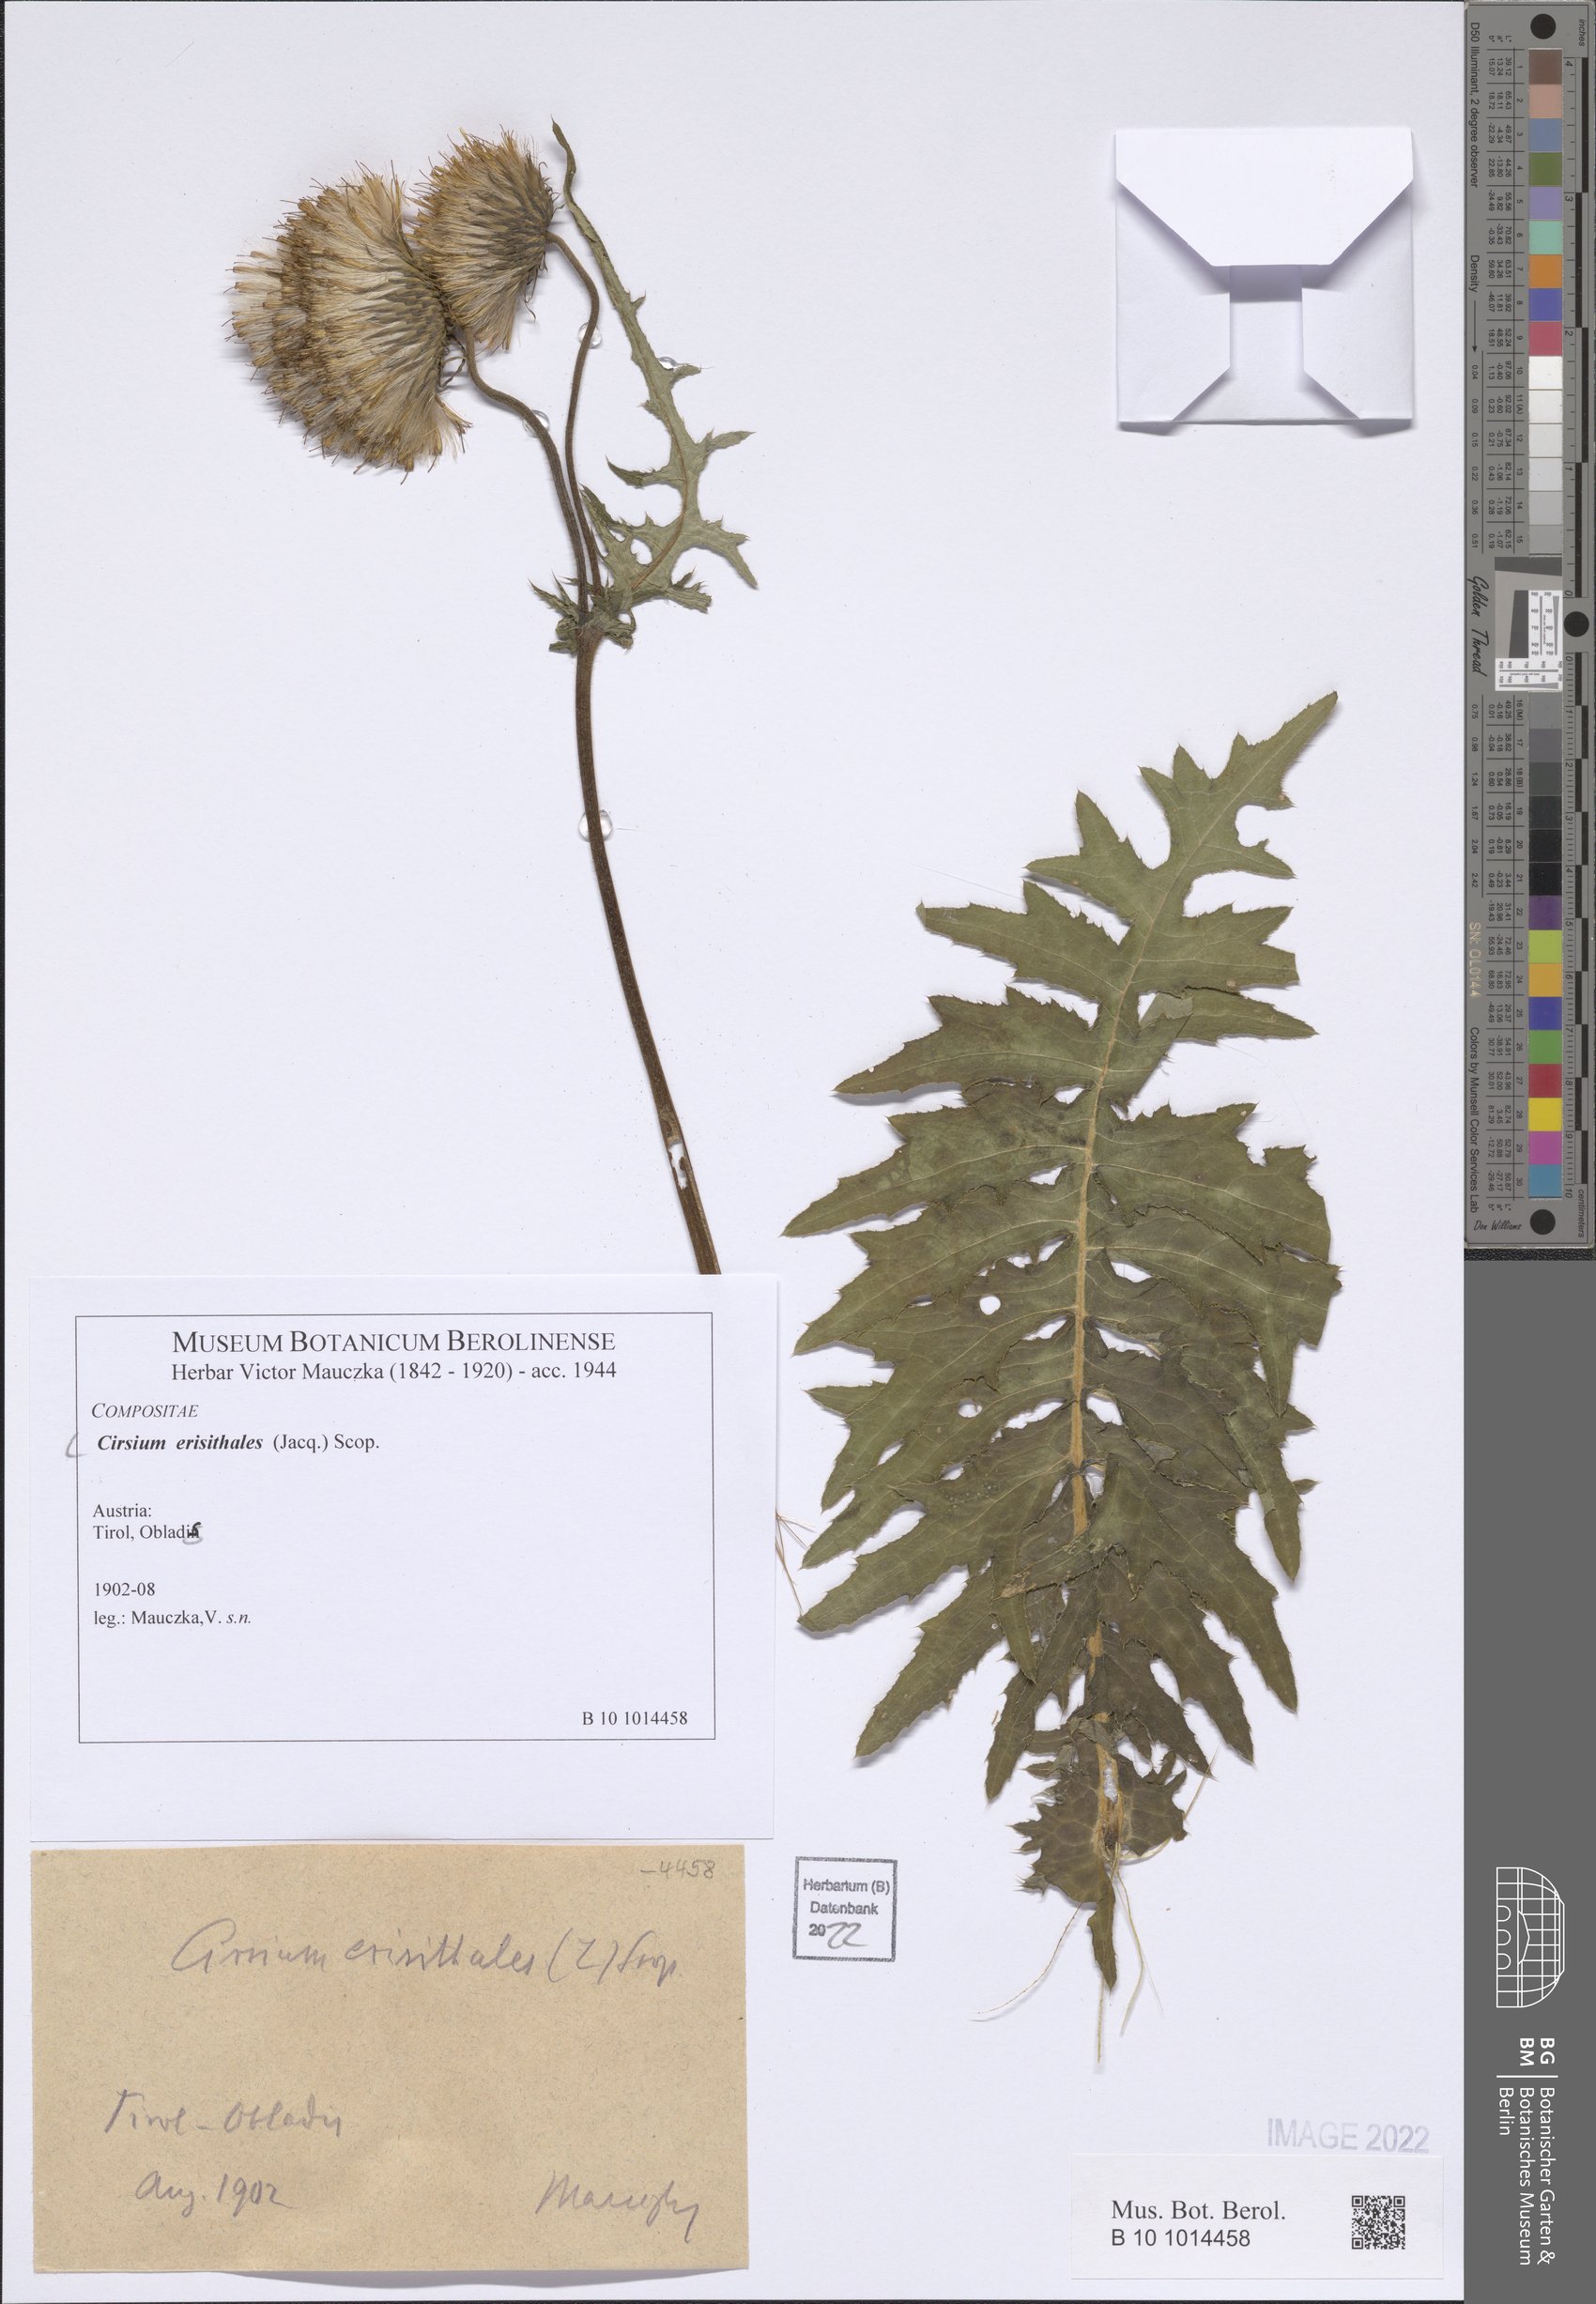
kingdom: Plantae
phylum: Tracheophyta
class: Magnoliopsida
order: Asterales
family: Asteraceae
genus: Cirsium
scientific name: Cirsium erisithales
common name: Yellow thistle
